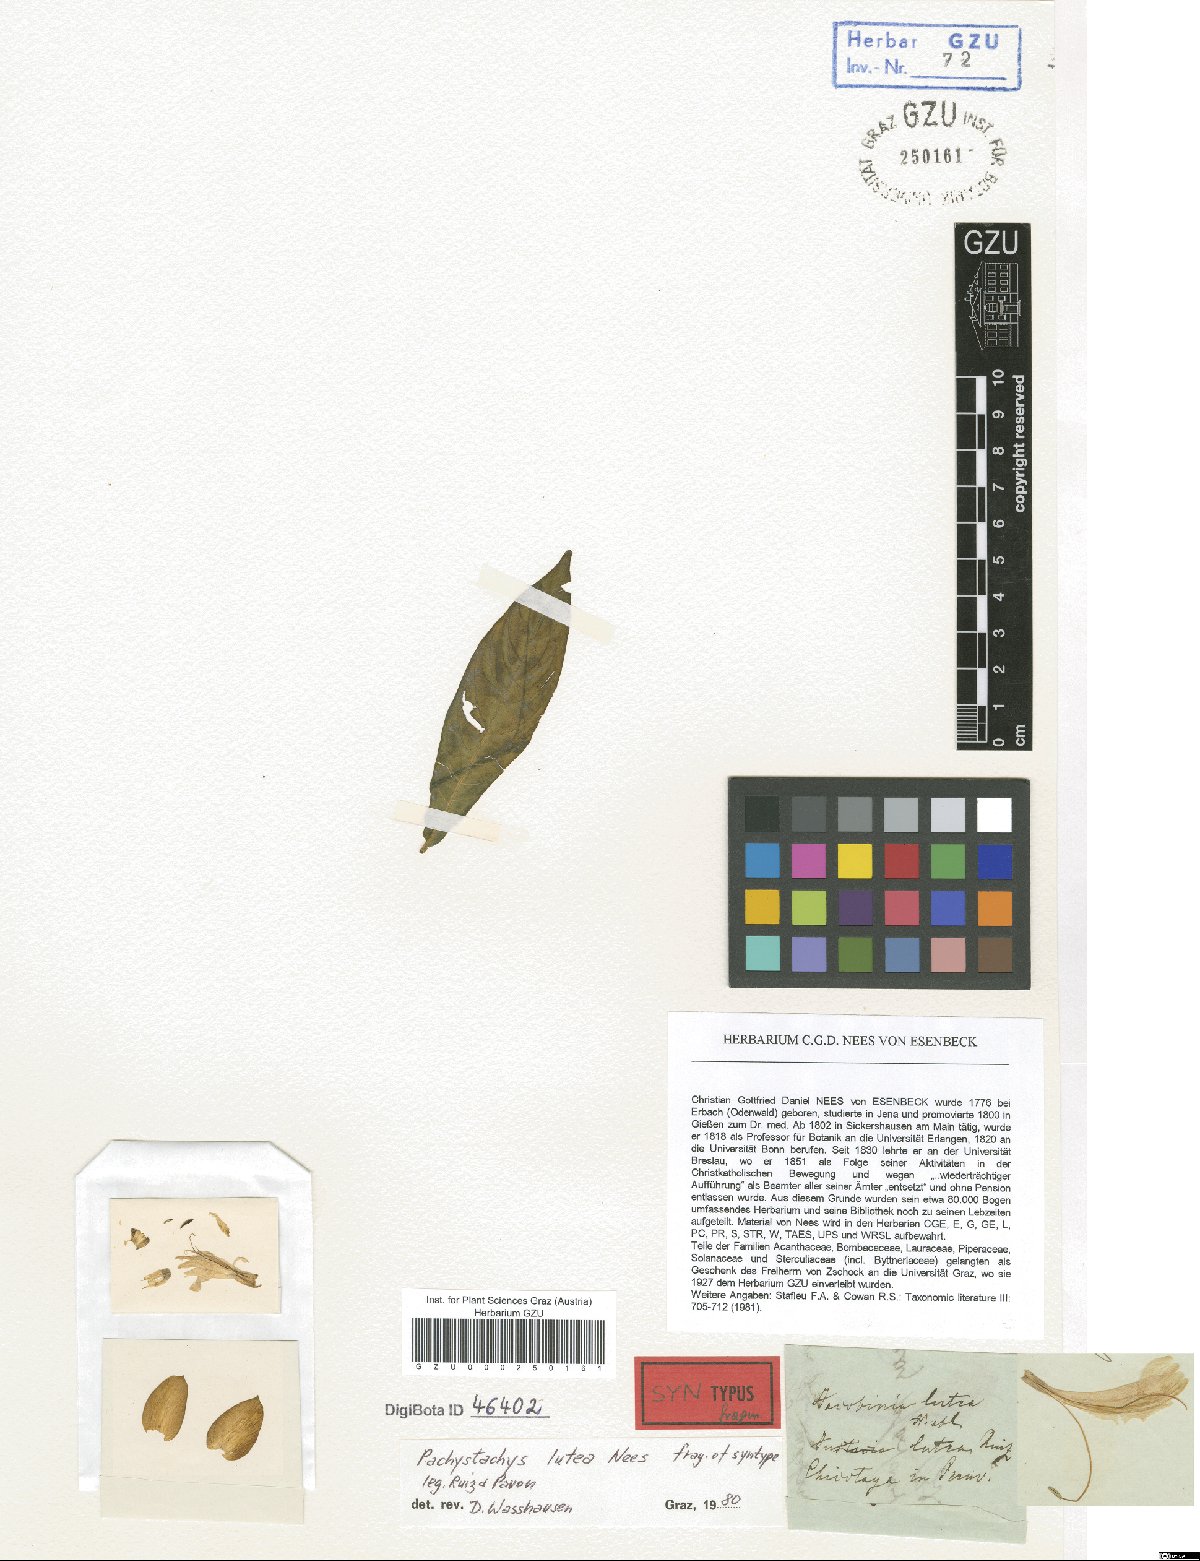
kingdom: Plantae
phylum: Tracheophyta
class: Magnoliopsida
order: Lamiales
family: Acanthaceae
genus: Pachystachys
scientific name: Pachystachys lutea
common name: Golden shrimp-plant
